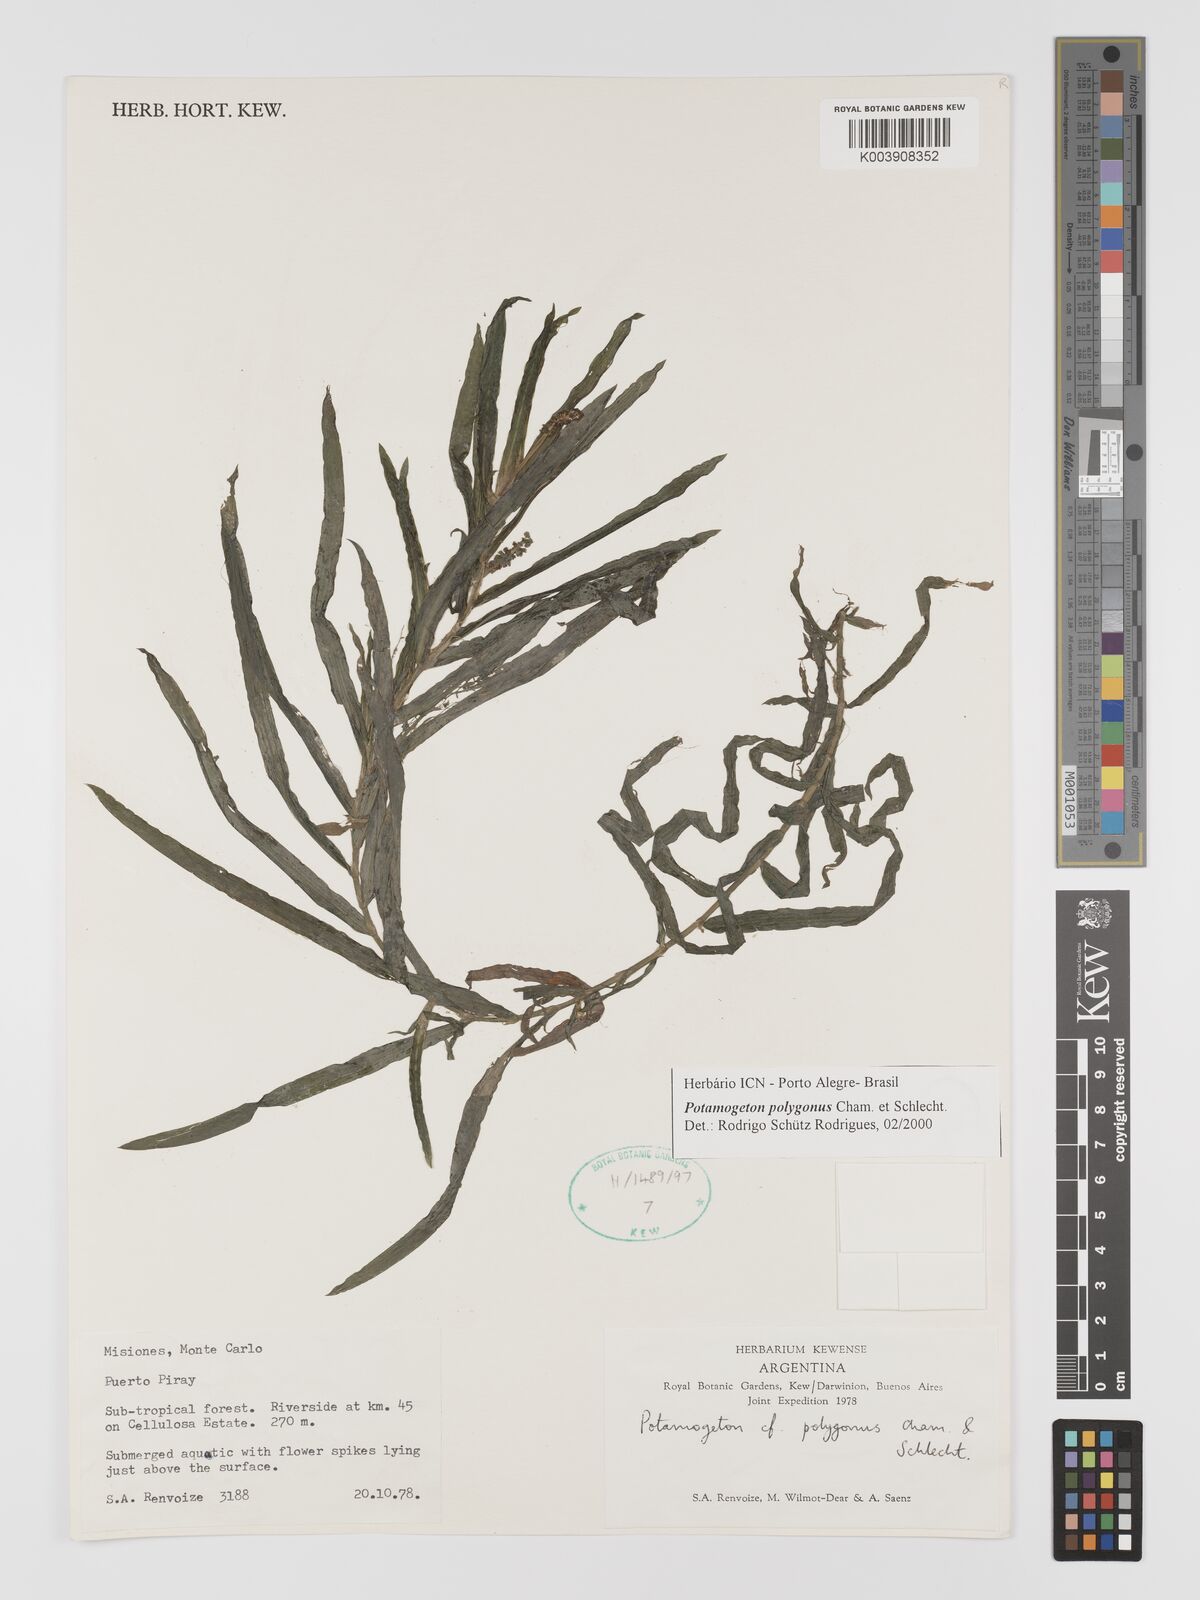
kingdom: Plantae
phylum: Tracheophyta
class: Liliopsida
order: Alismatales
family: Potamogetonaceae
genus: Potamogeton
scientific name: Potamogeton polygonus
